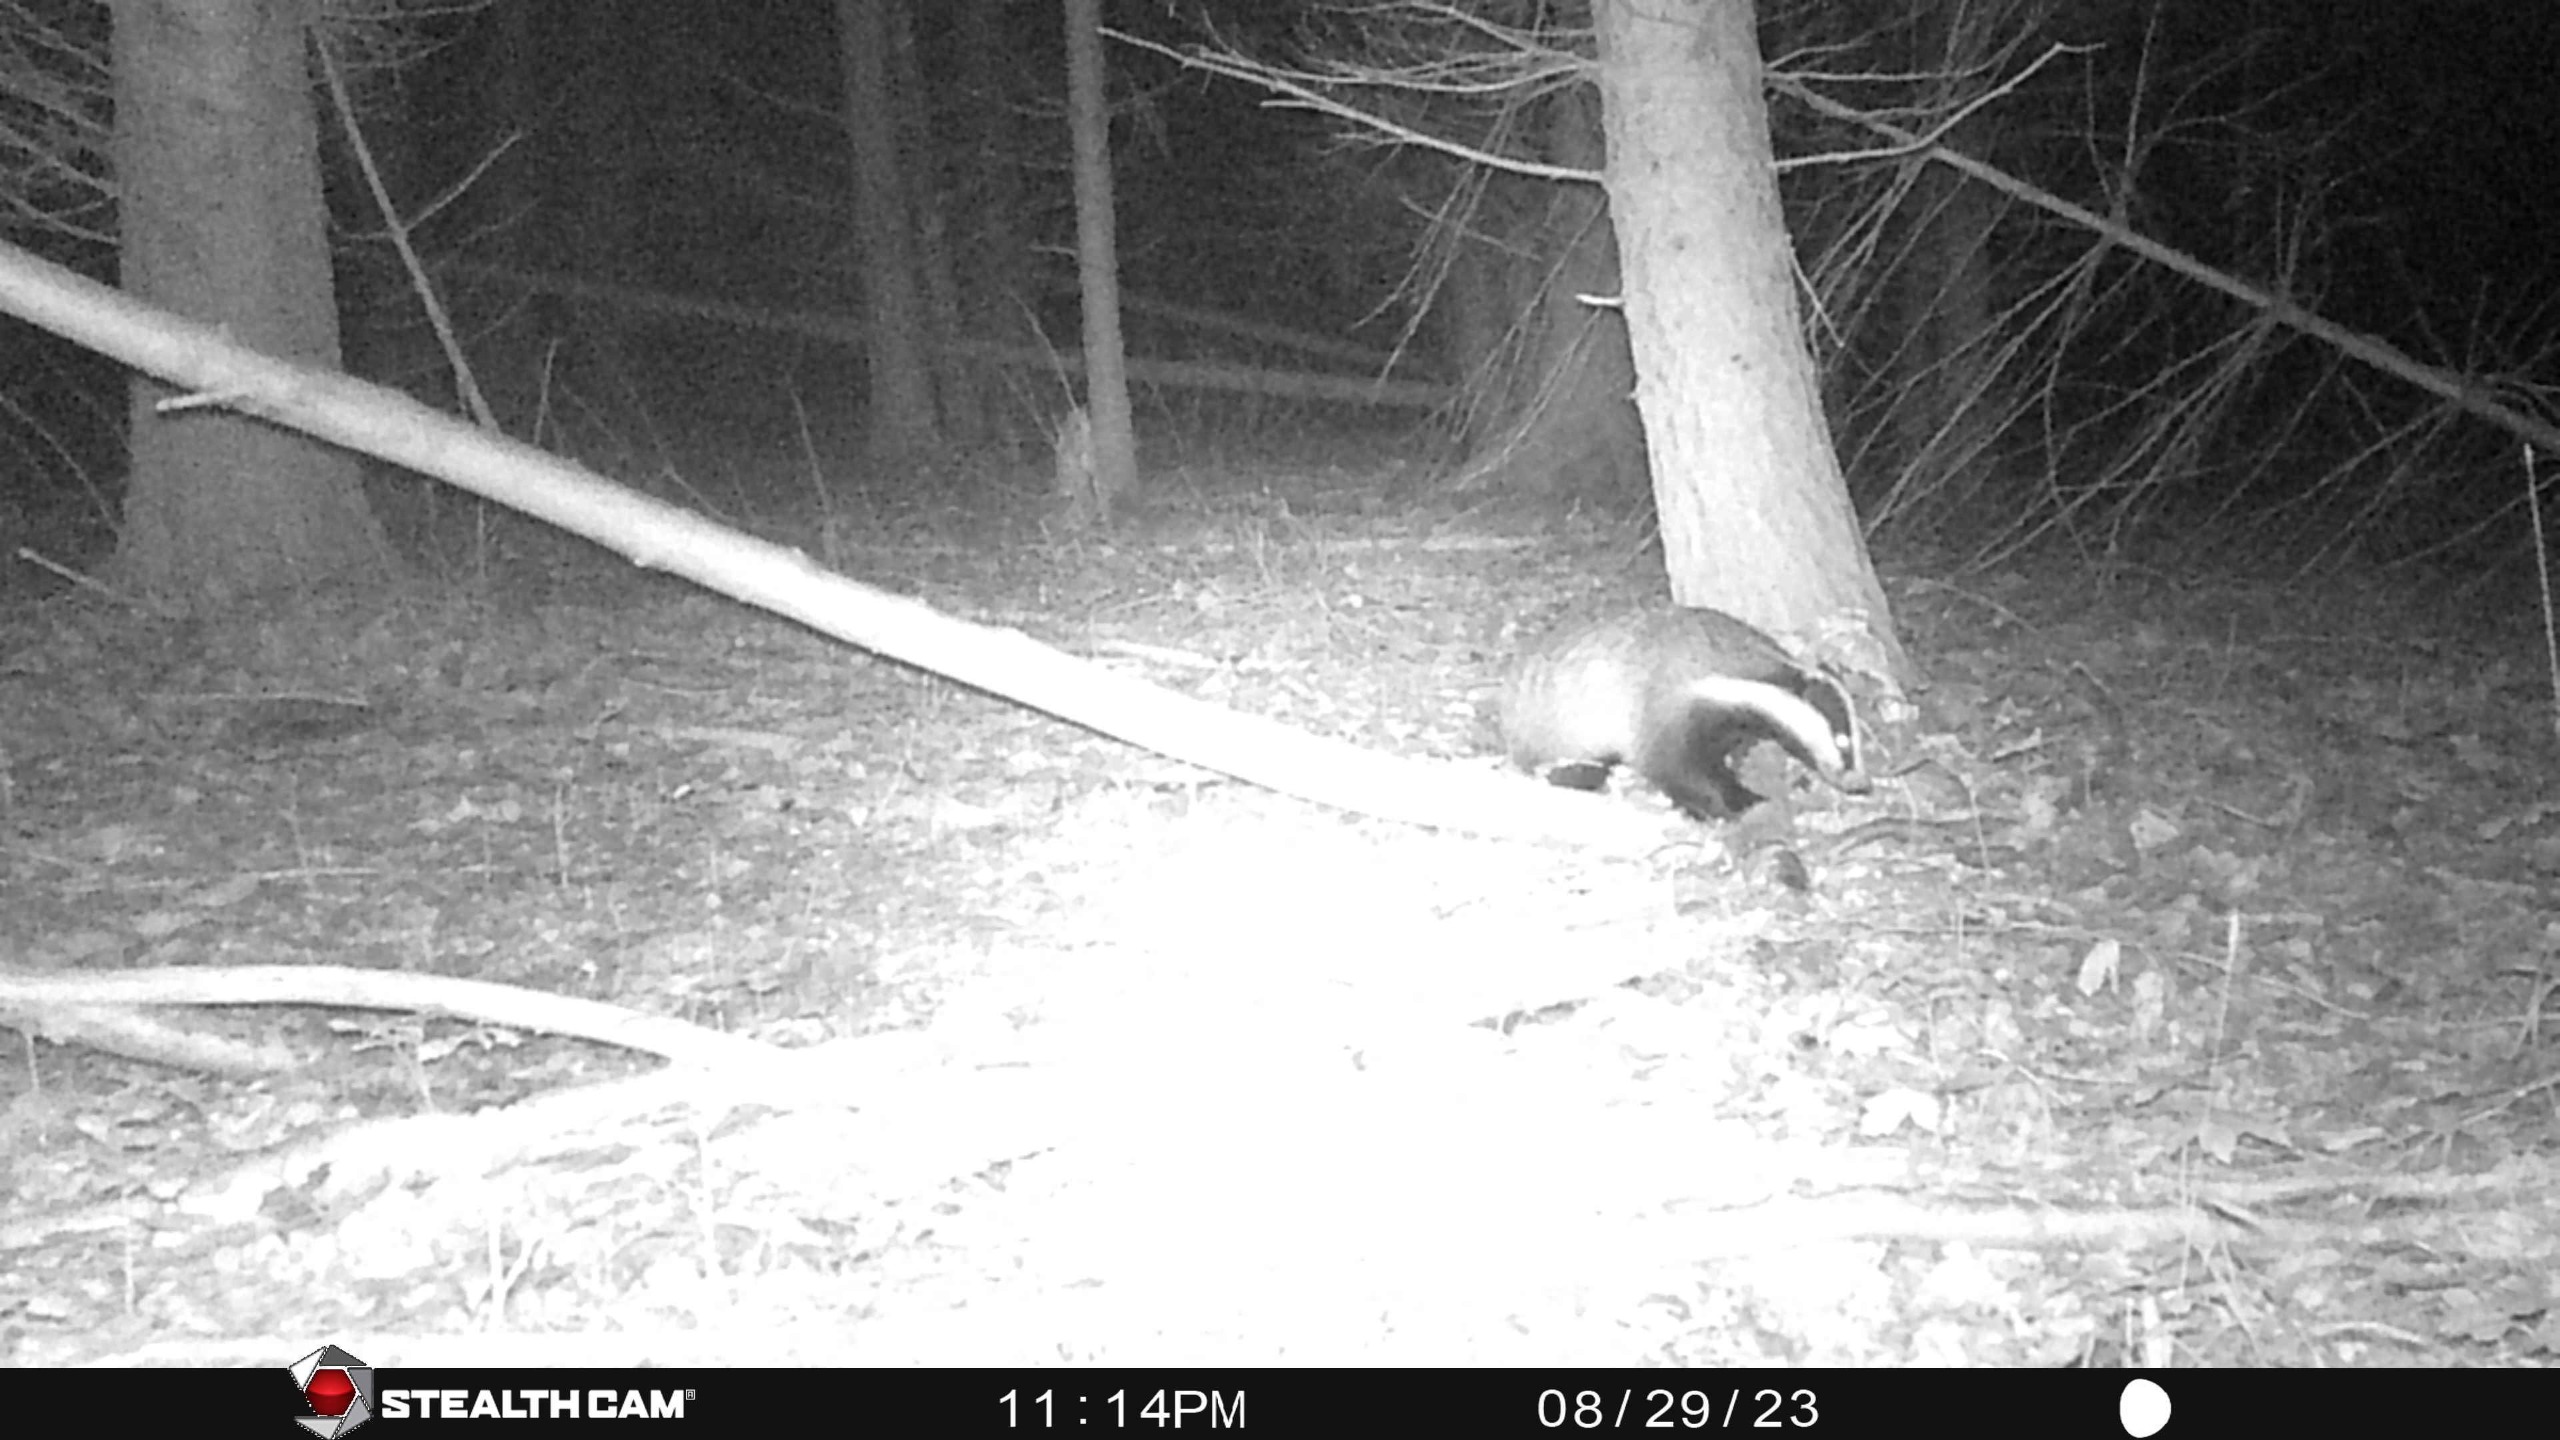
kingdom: Animalia
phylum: Chordata
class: Mammalia
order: Carnivora
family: Mustelidae
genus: Meles
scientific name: Meles meles
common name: Grævling
